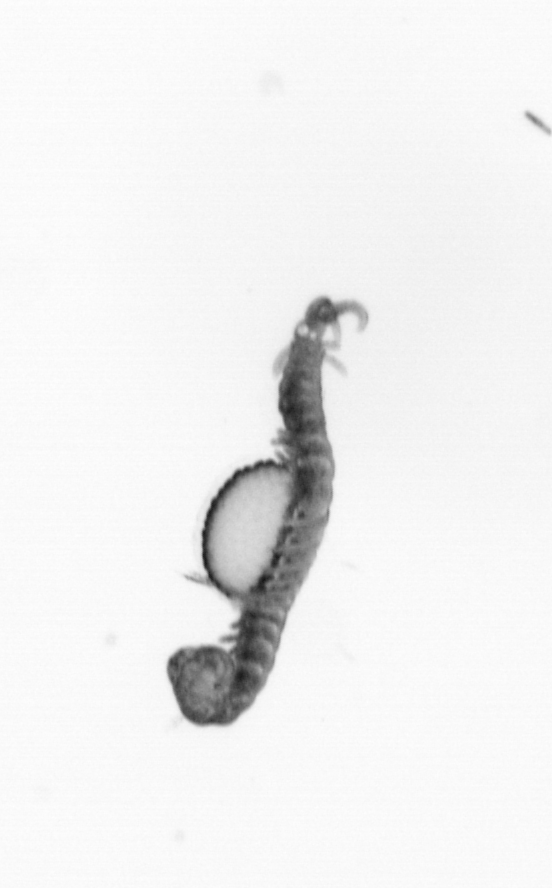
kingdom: Animalia
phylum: Annelida
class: Polychaeta
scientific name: Polychaeta
